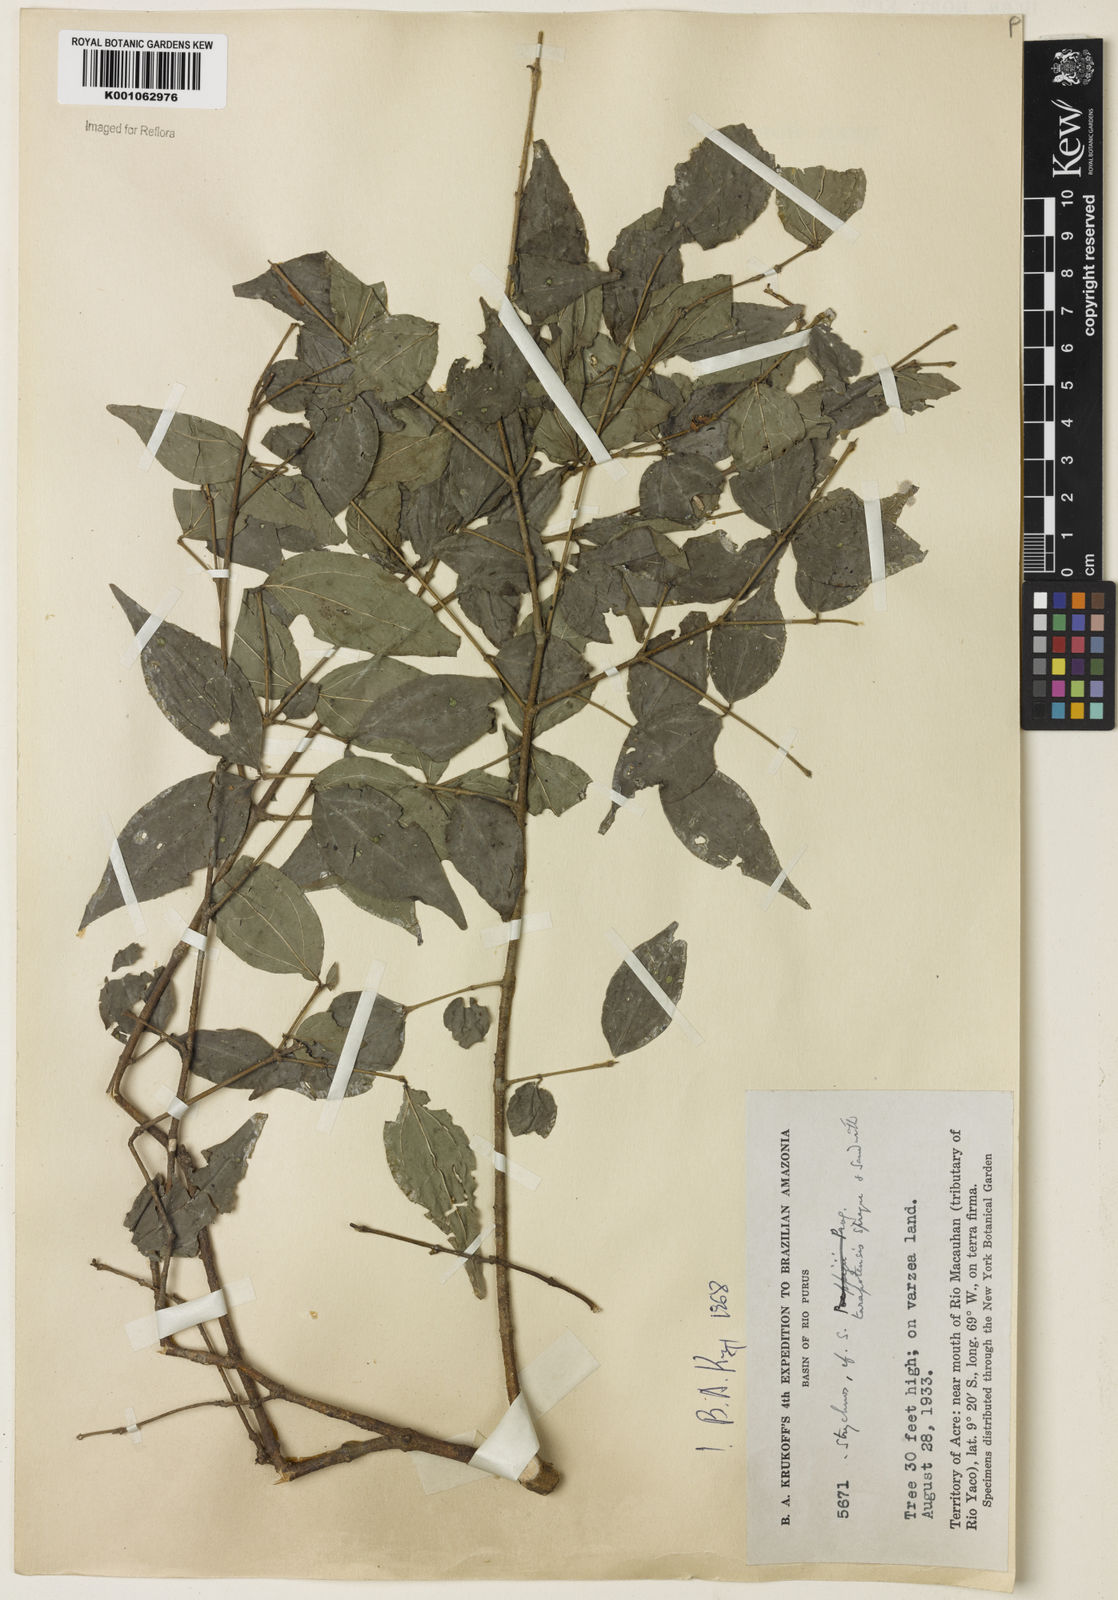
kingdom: Plantae
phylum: Tracheophyta
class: Magnoliopsida
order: Gentianales
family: Loganiaceae
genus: Strychnos
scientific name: Strychnos tarapotensis
